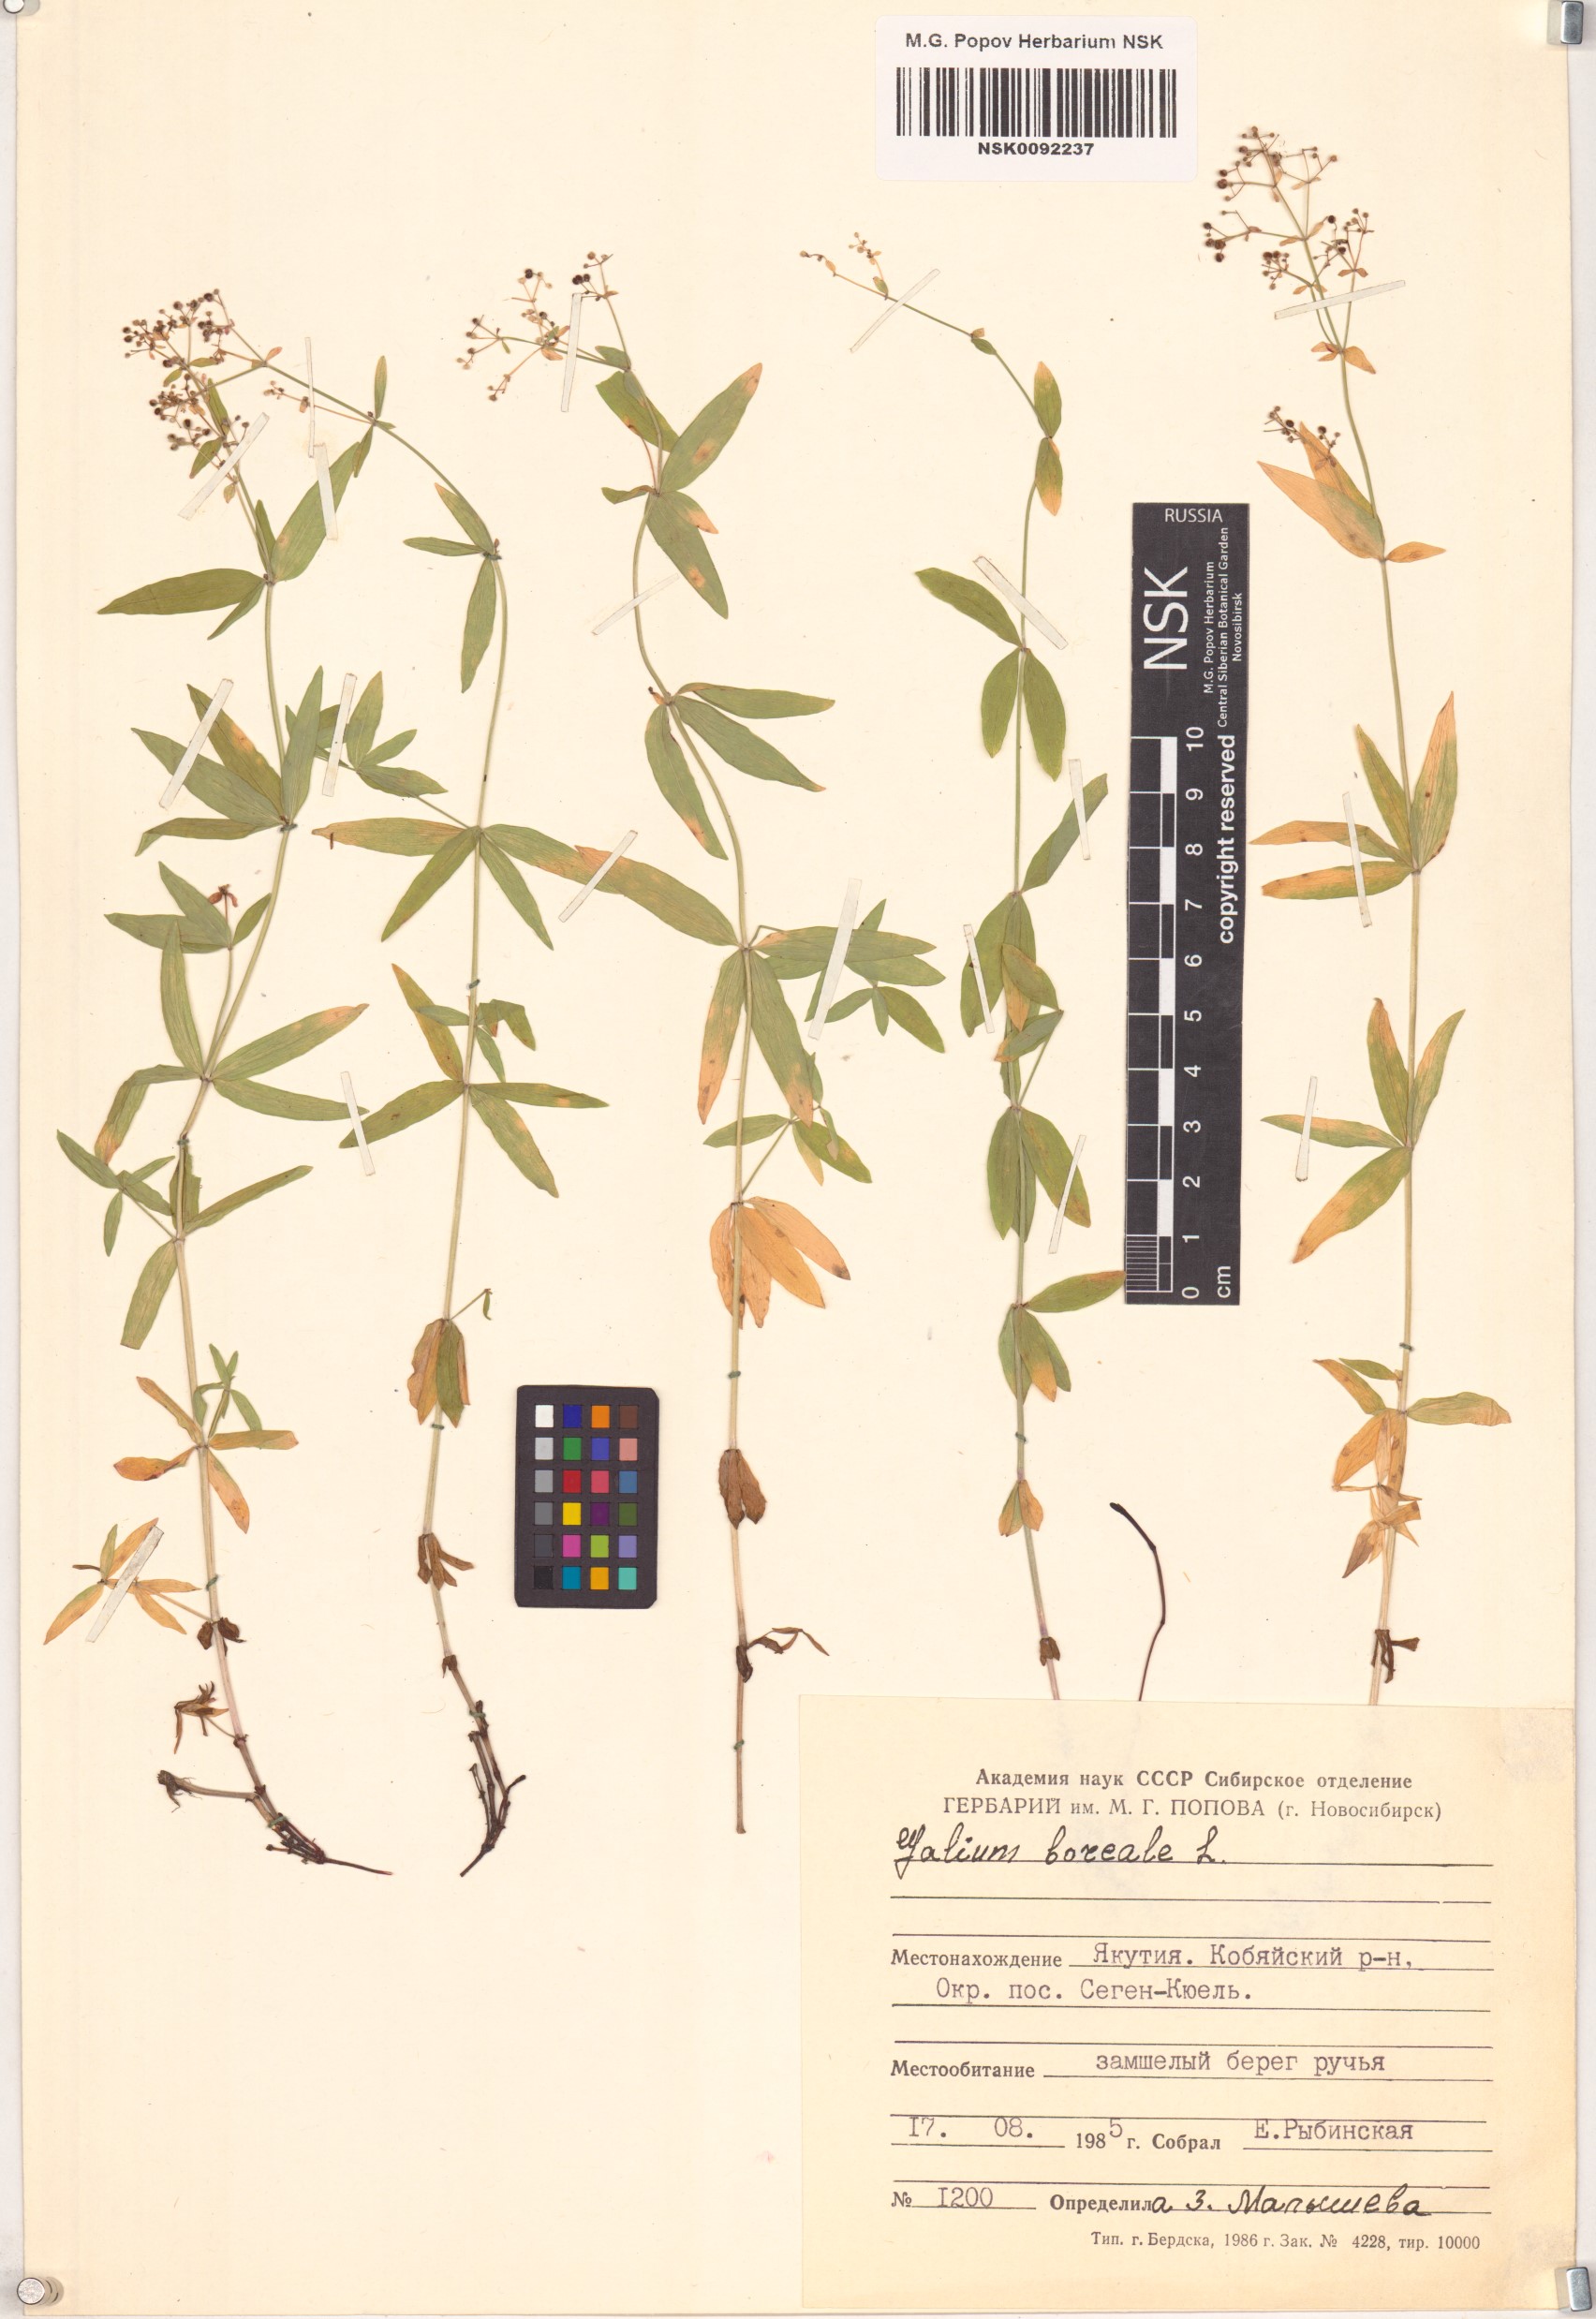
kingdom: Plantae
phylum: Tracheophyta
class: Magnoliopsida
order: Gentianales
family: Rubiaceae
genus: Galium
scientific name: Galium boreale
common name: Northern bedstraw
